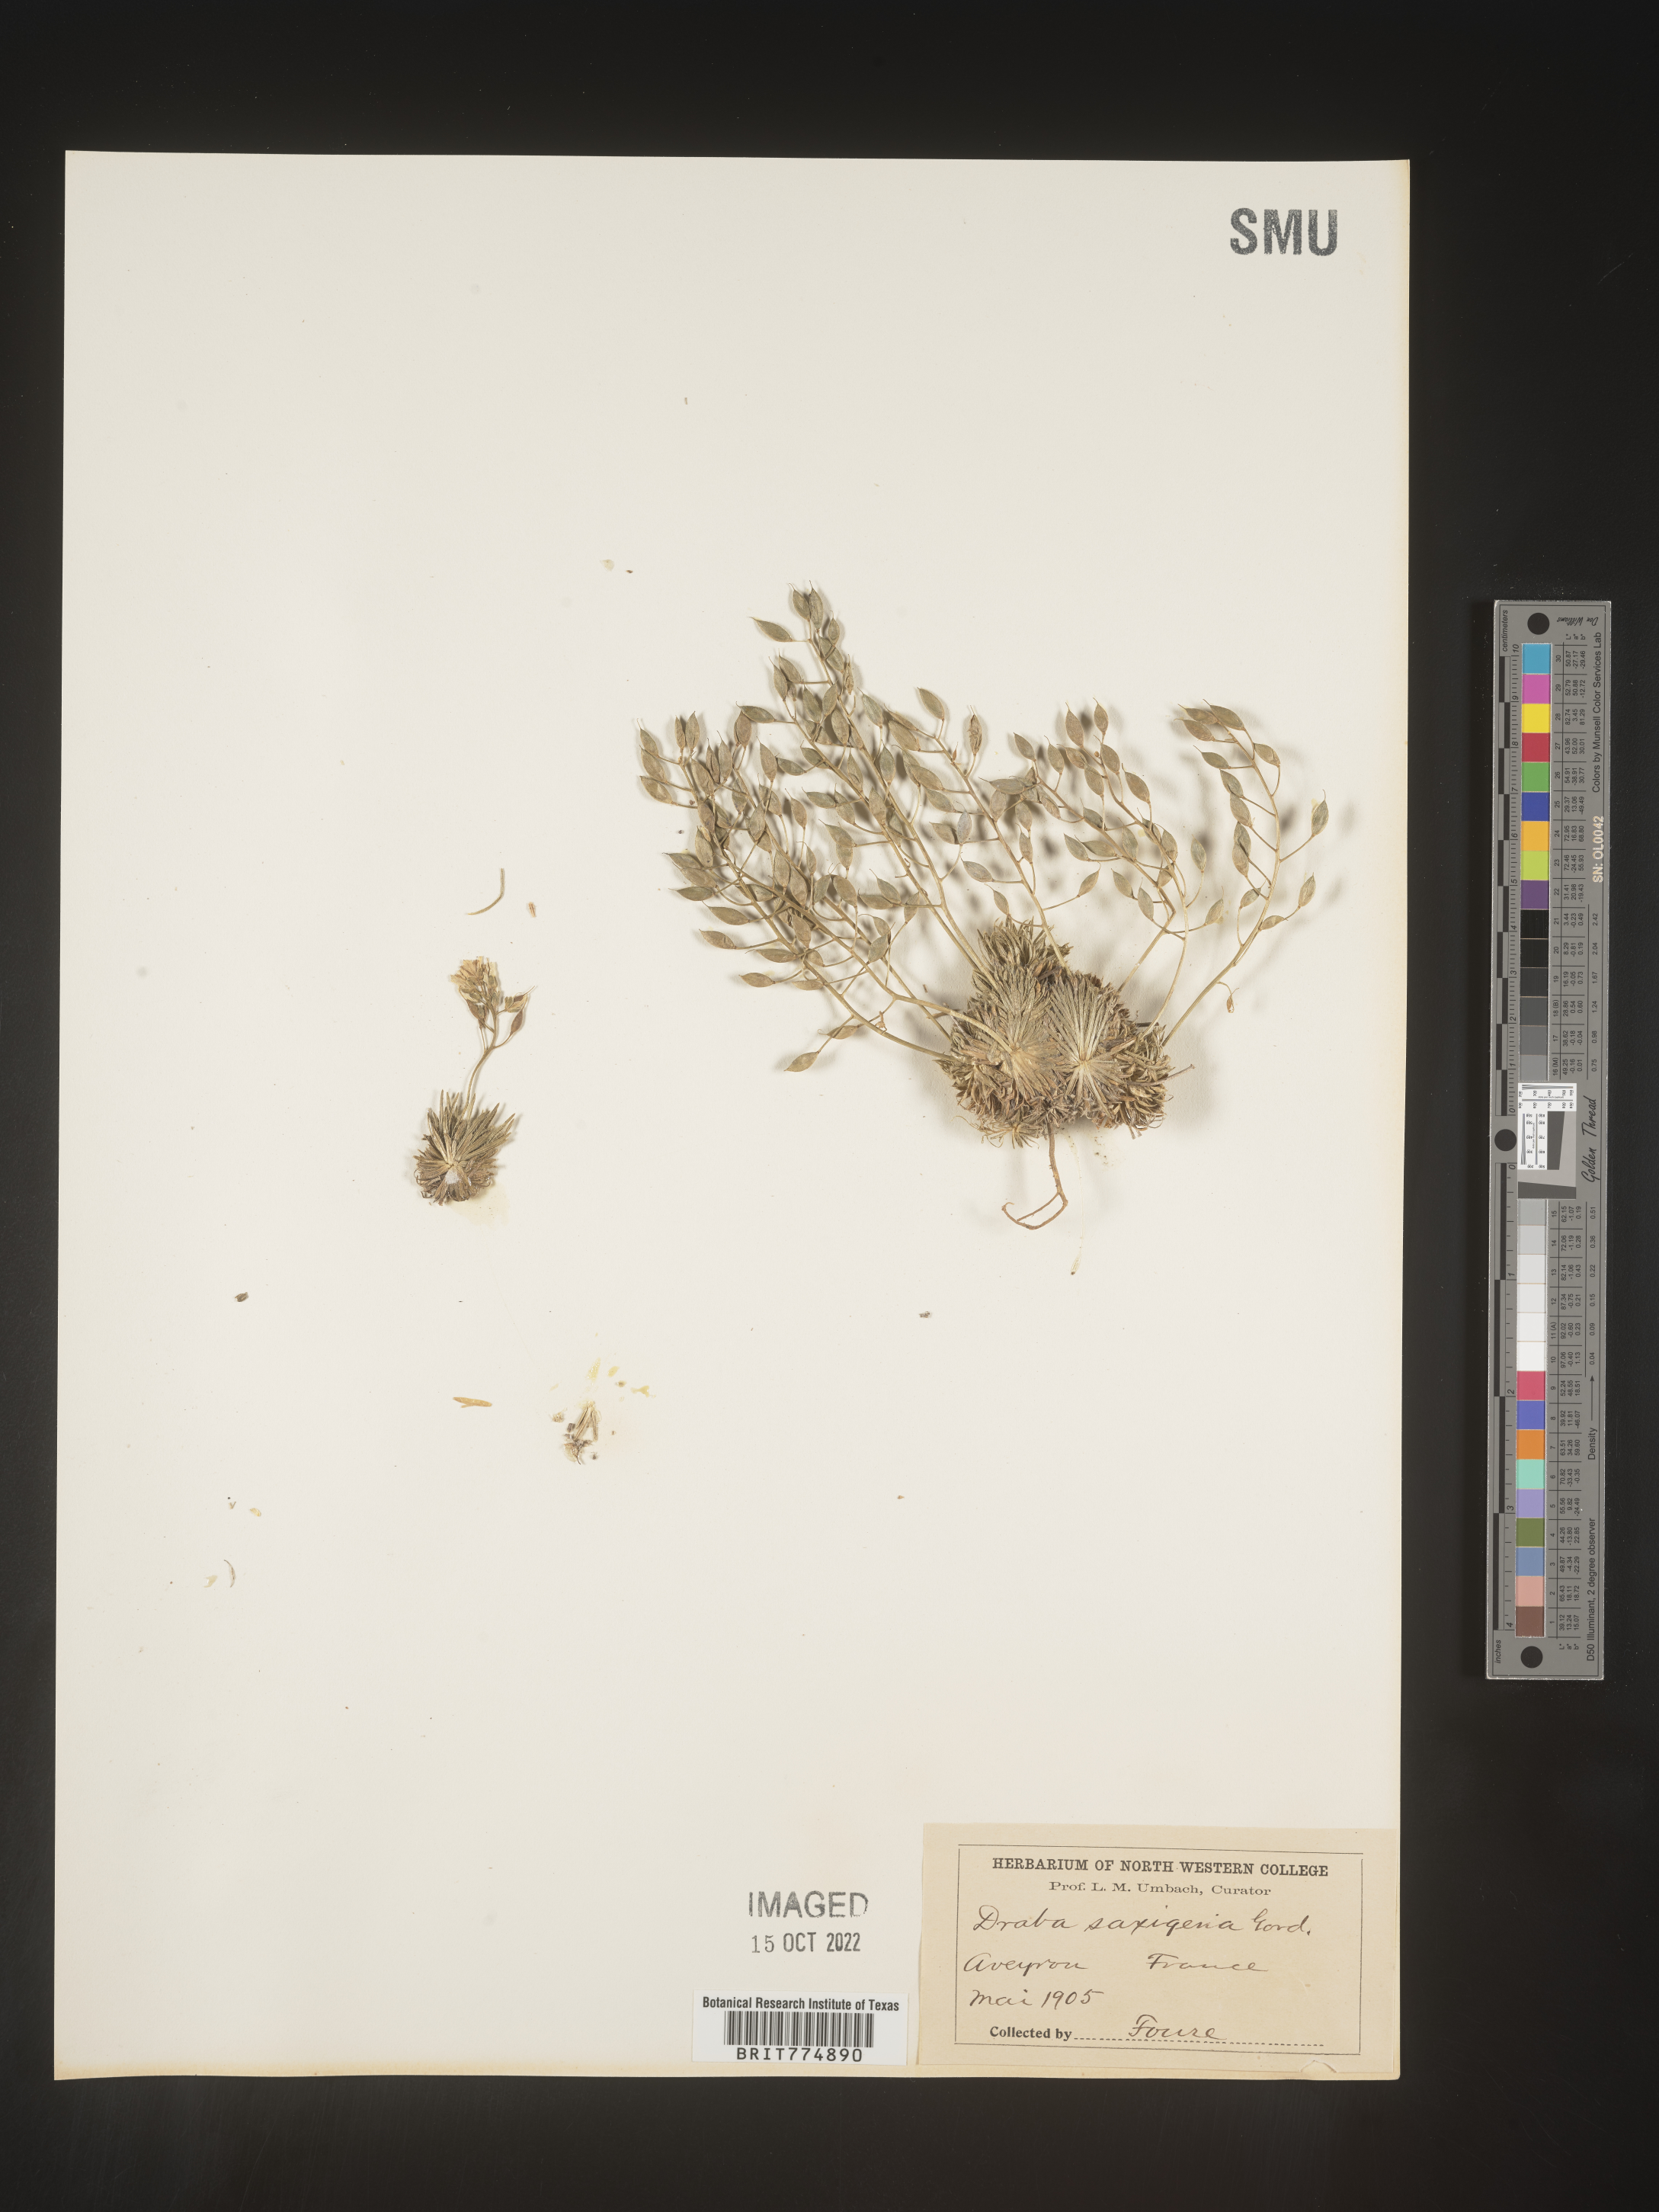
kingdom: Plantae
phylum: Tracheophyta
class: Magnoliopsida
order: Brassicales
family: Brassicaceae
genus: Draba
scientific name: Draba
